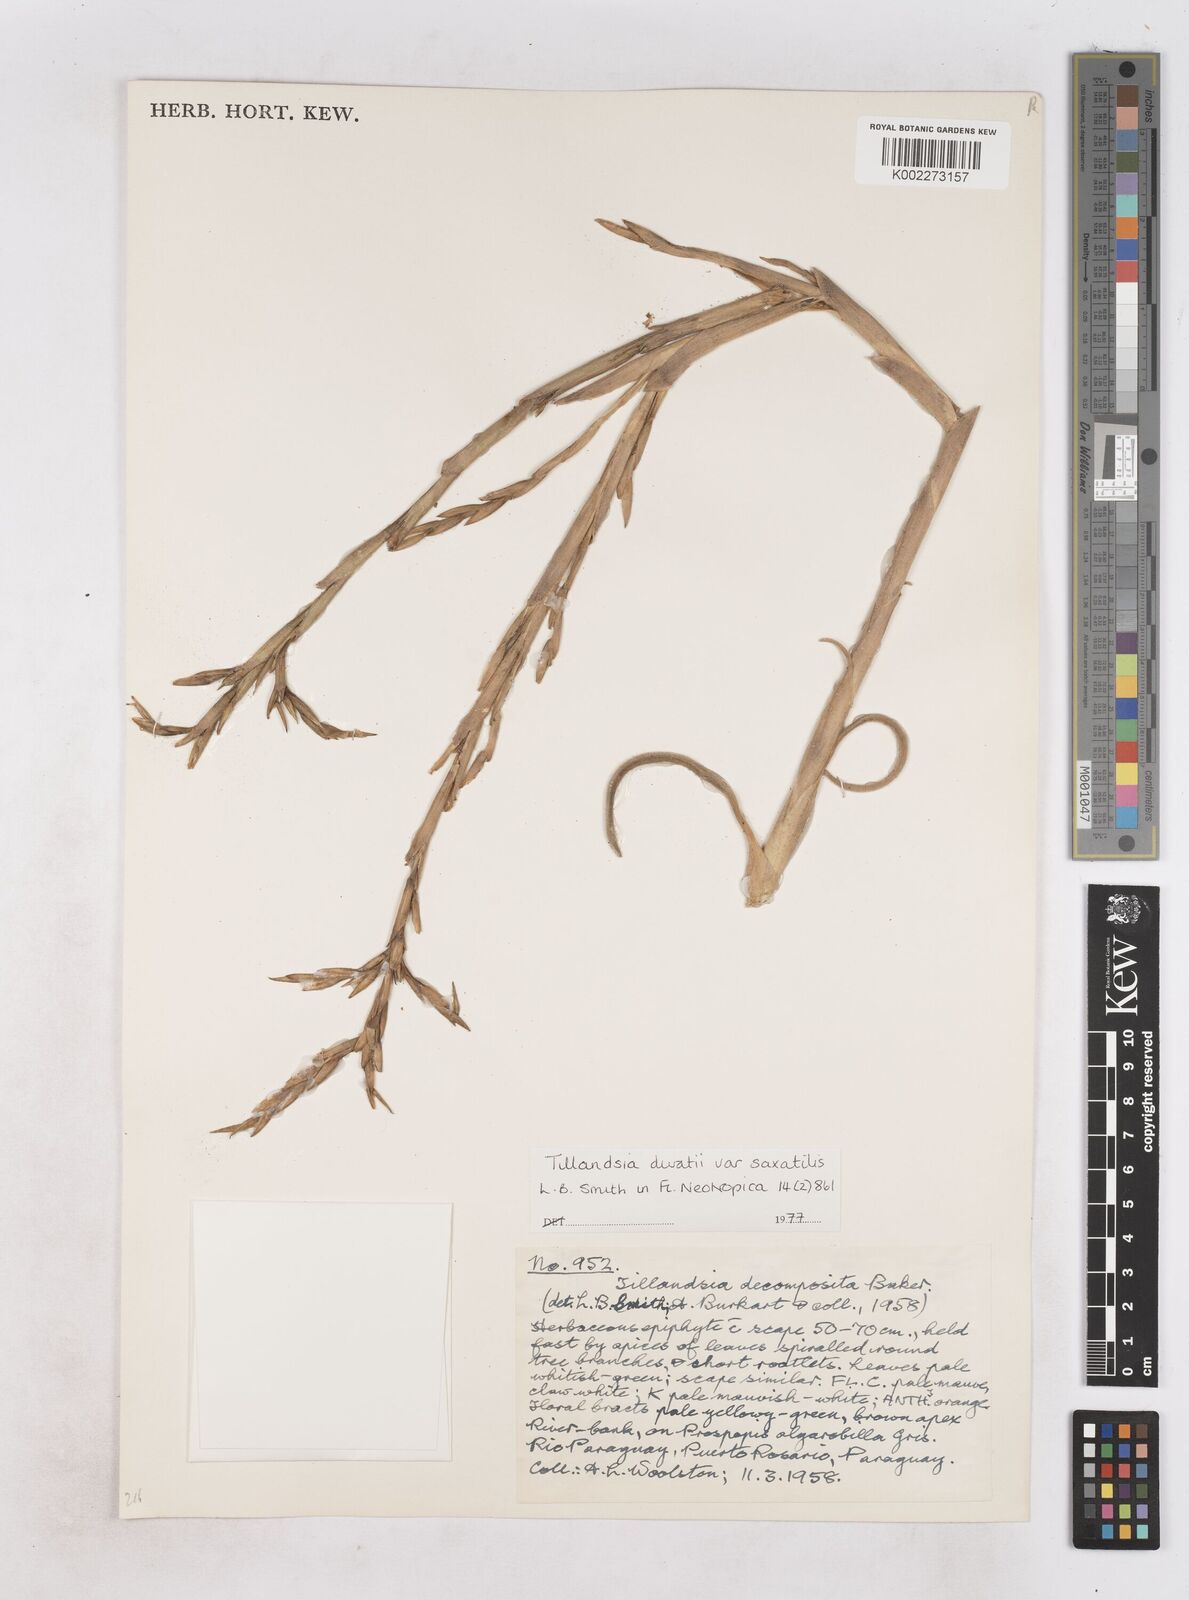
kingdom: Plantae
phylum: Tracheophyta
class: Liliopsida
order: Poales
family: Bromeliaceae
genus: Tillandsia
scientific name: Tillandsia duratii
